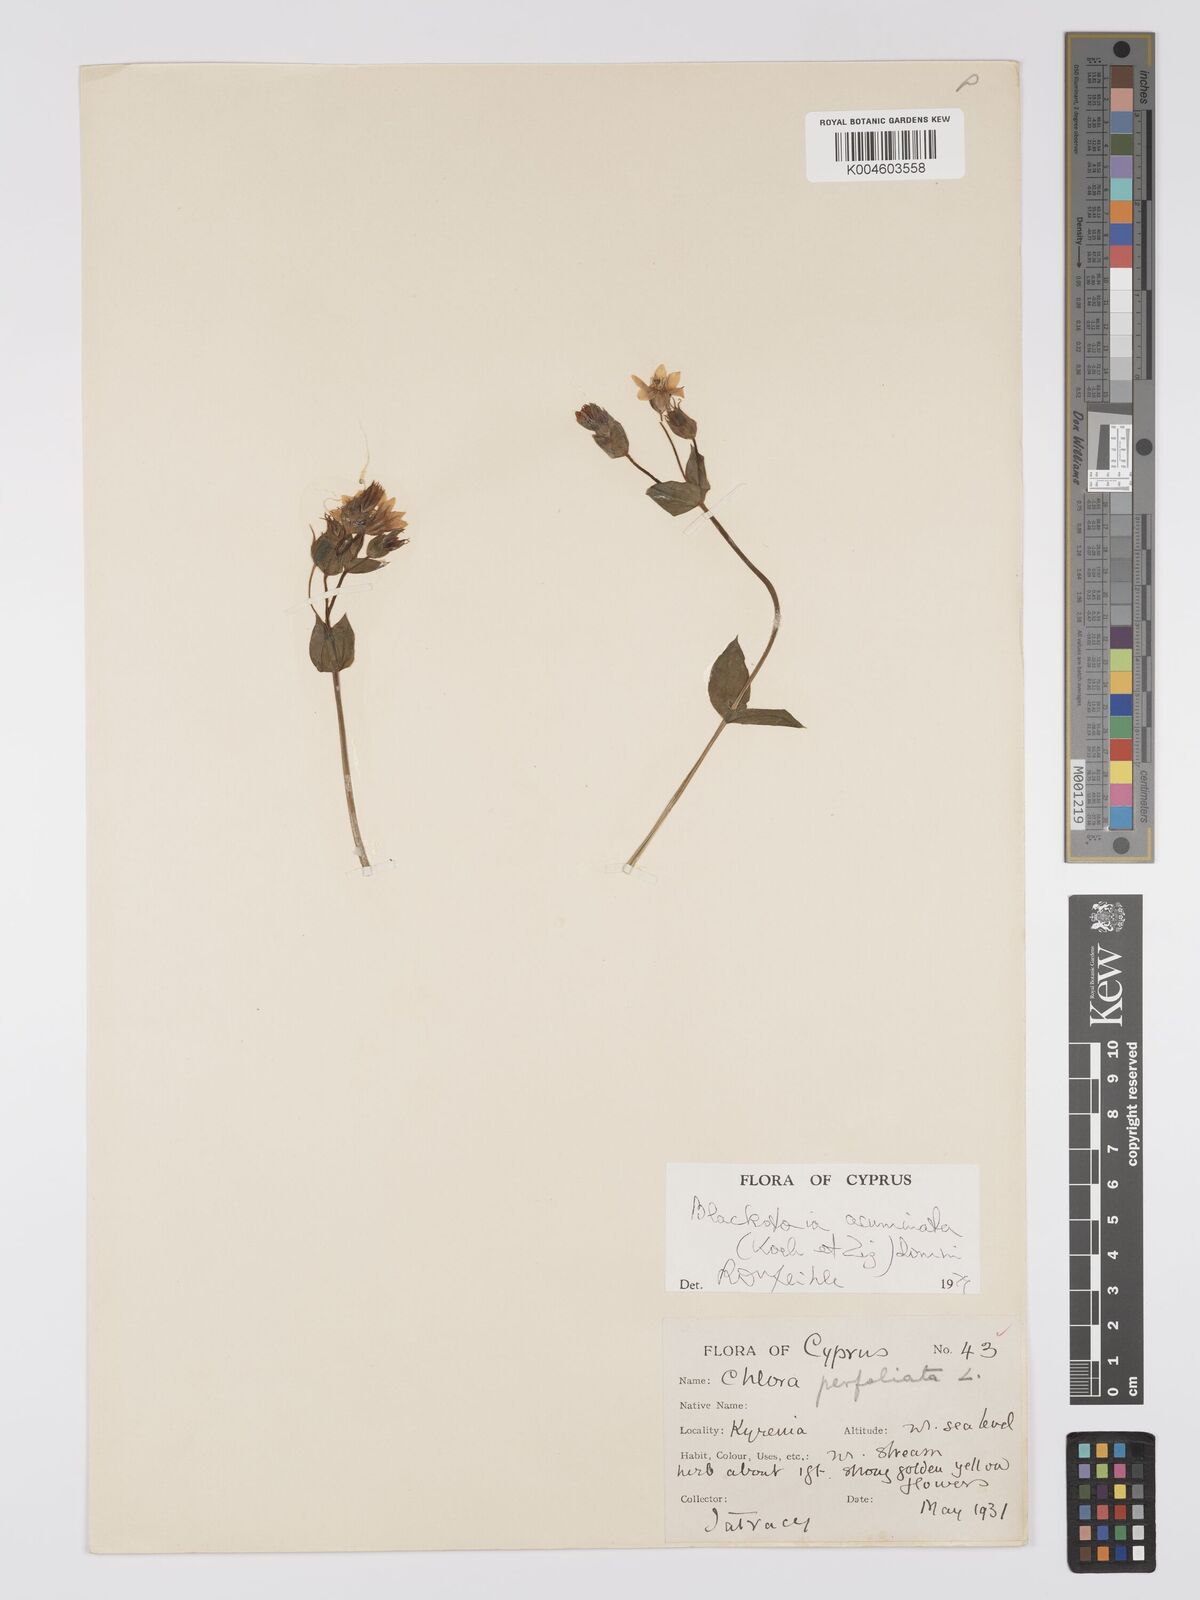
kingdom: Plantae
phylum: Tracheophyta
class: Magnoliopsida
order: Gentianales
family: Gentianaceae
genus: Blackstonia
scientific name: Blackstonia acuminata
